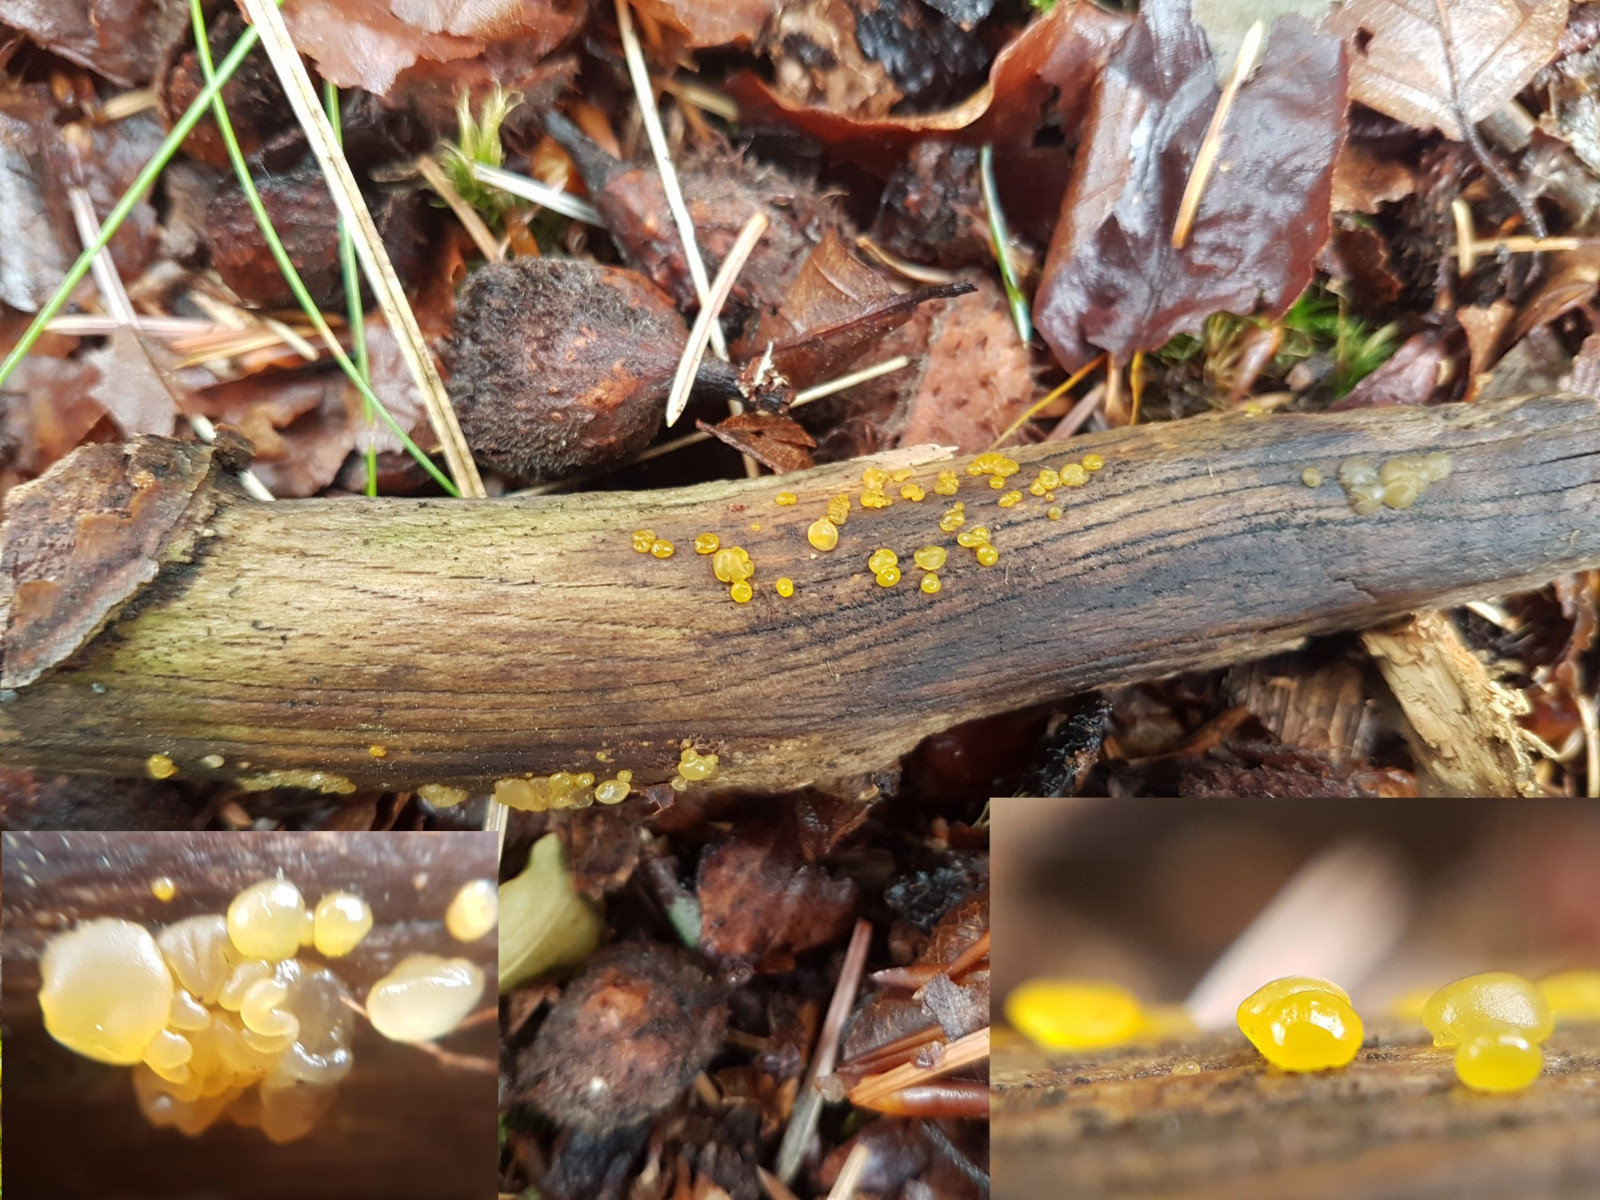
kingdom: Fungi
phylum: Basidiomycota
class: Dacrymycetes
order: Dacrymycetales
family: Dacrymycetaceae
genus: Dacrymyces
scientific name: Dacrymyces lacrymalis
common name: rynket tåresvamp
